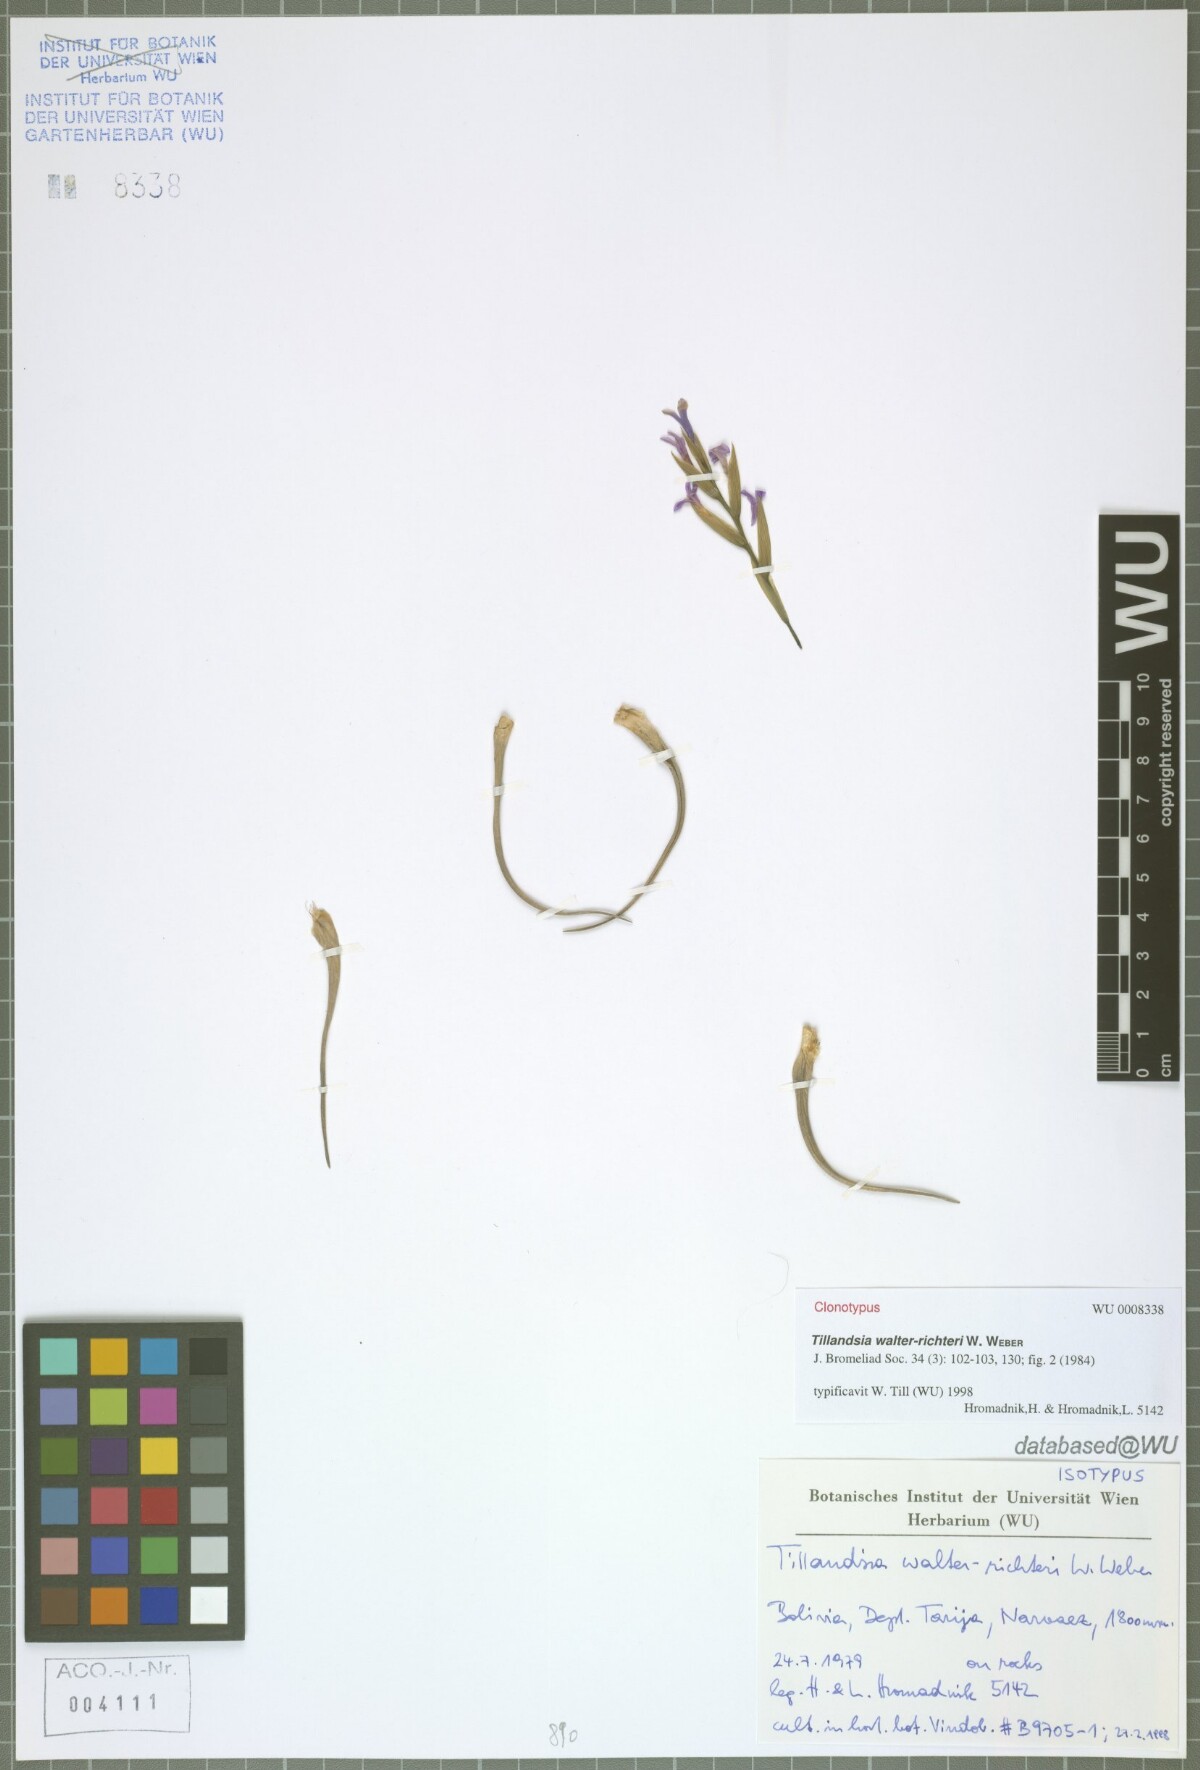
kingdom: Plantae
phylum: Tracheophyta
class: Liliopsida
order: Poales
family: Bromeliaceae
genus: Tillandsia
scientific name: Tillandsia walter-richteri
